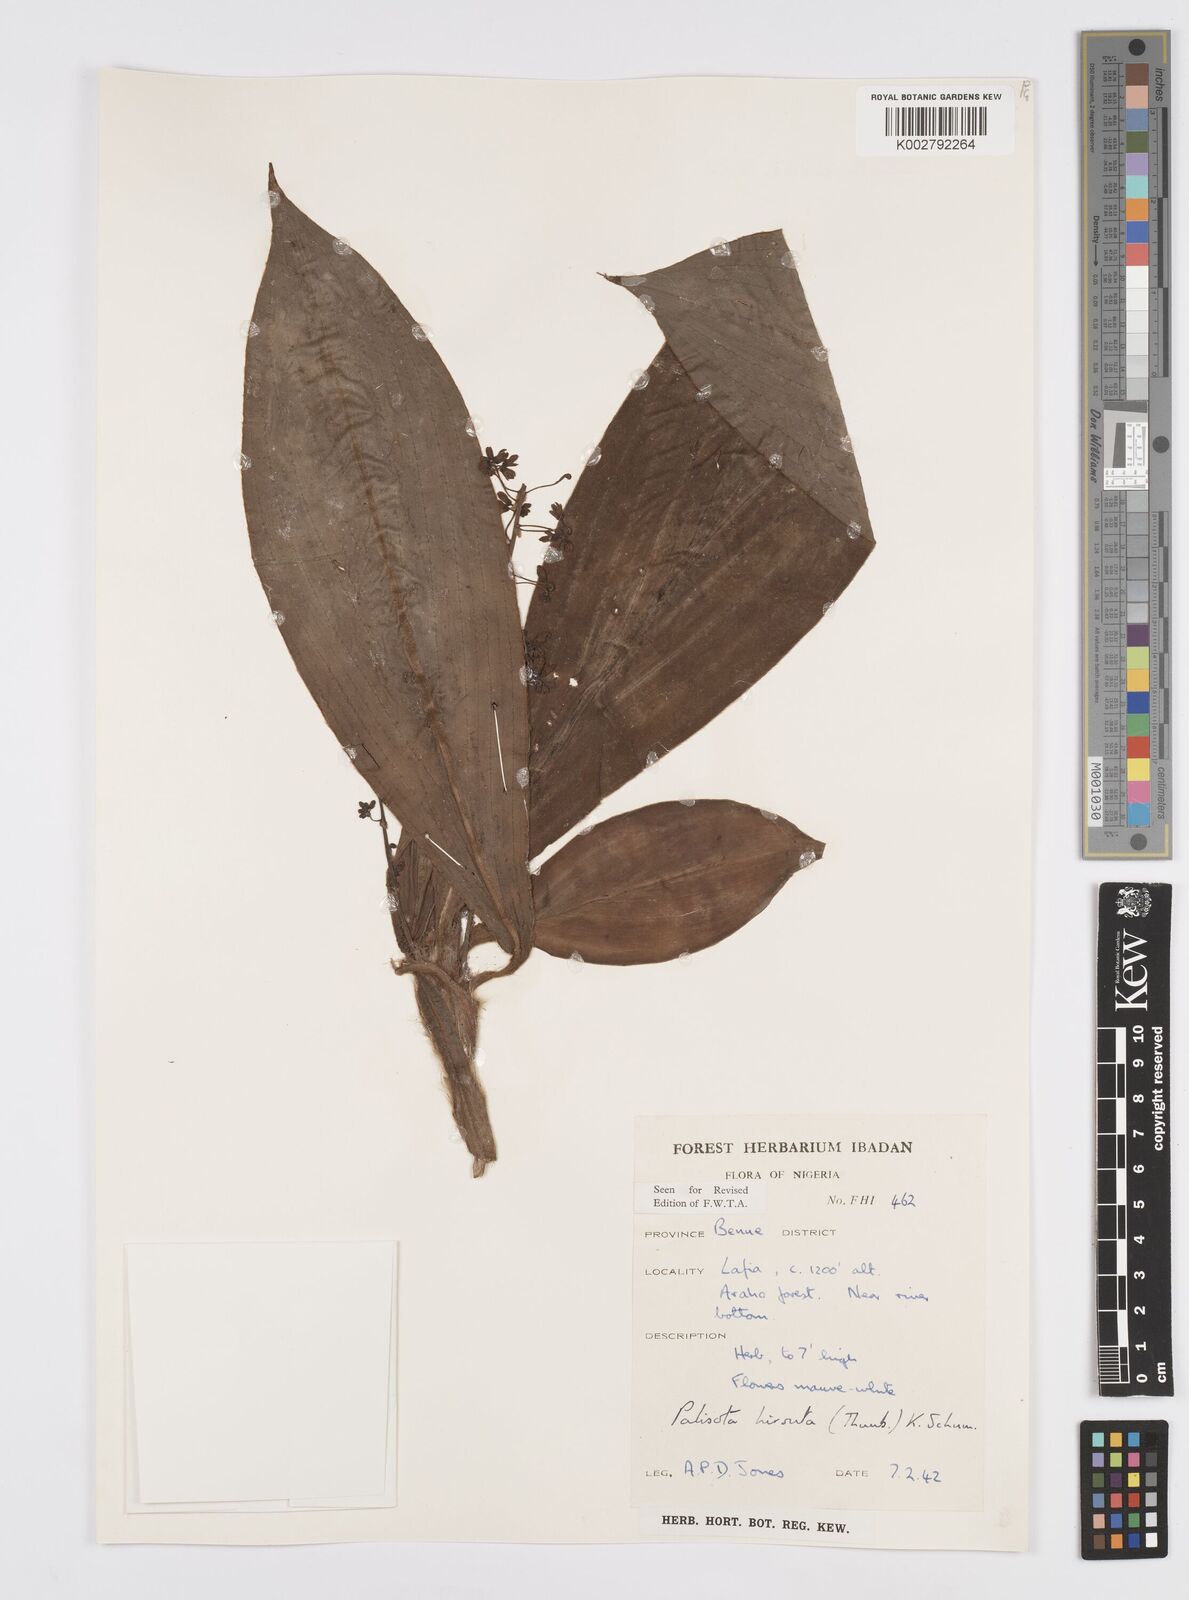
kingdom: Plantae
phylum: Tracheophyta
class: Liliopsida
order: Commelinales
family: Commelinaceae
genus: Palisota
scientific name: Palisota hirsuta
